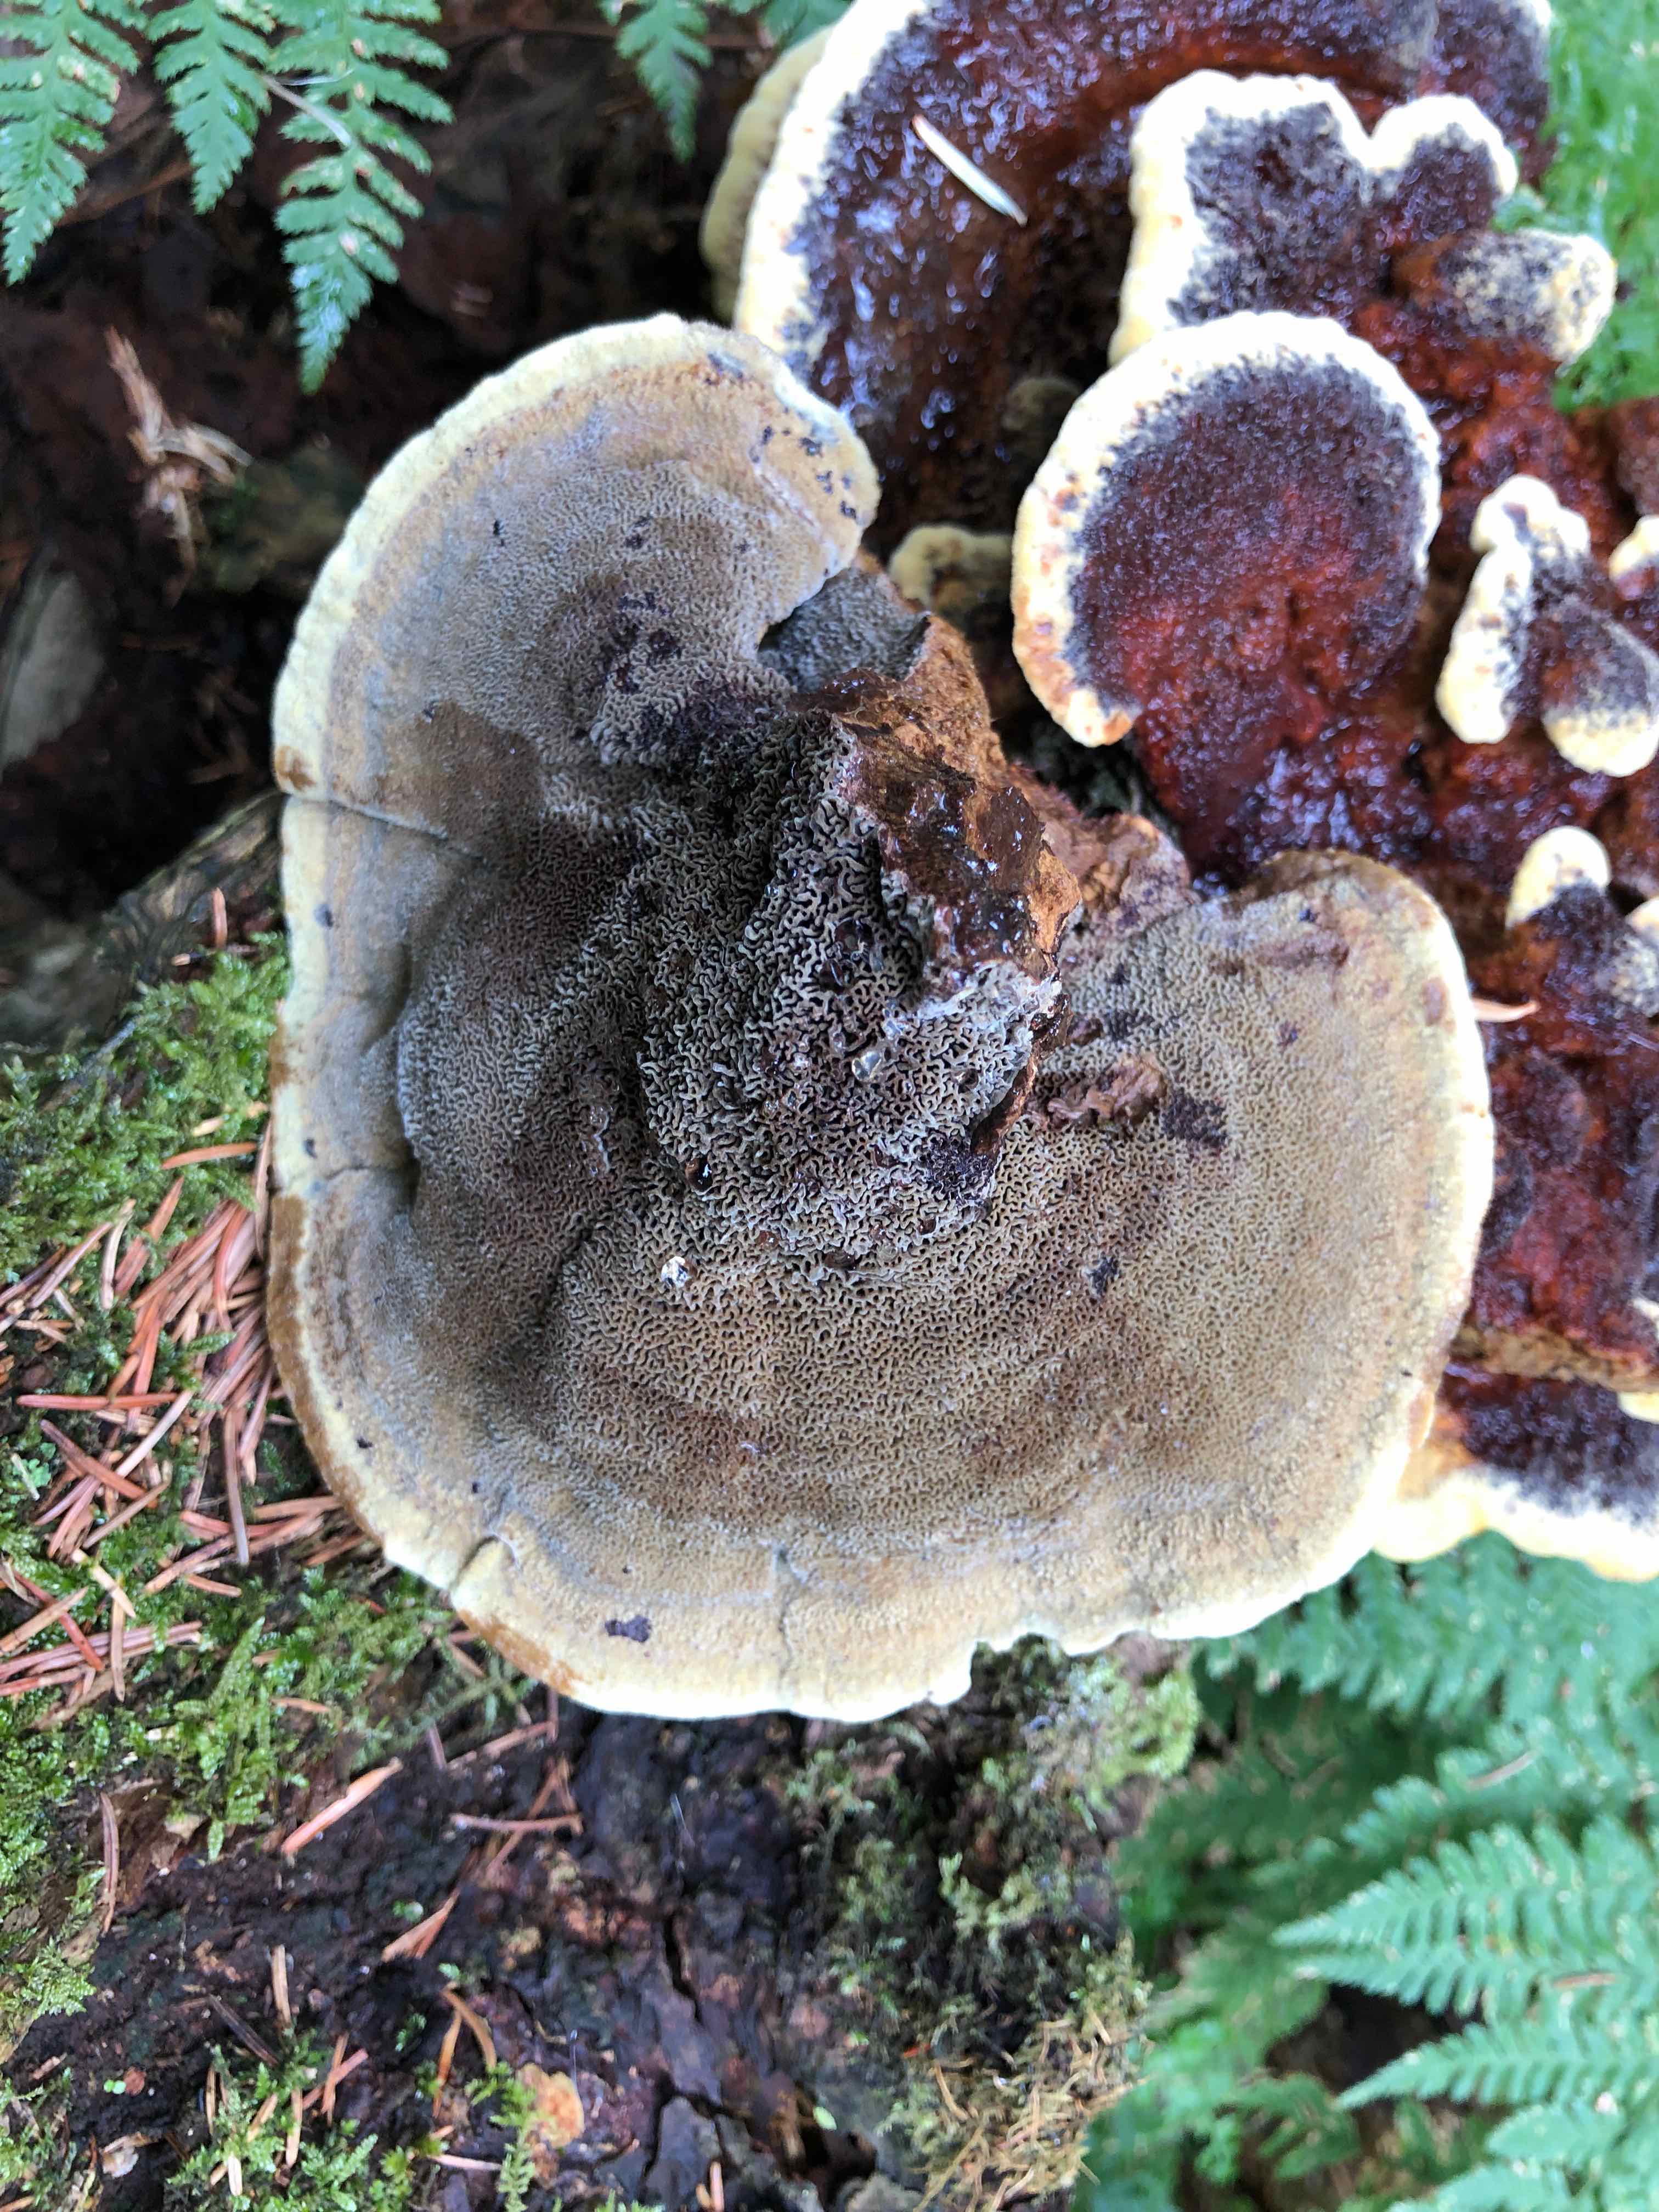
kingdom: Fungi
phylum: Basidiomycota
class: Agaricomycetes
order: Polyporales
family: Laetiporaceae
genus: Phaeolus
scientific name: Phaeolus schweinitzii
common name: brunporesvamp
